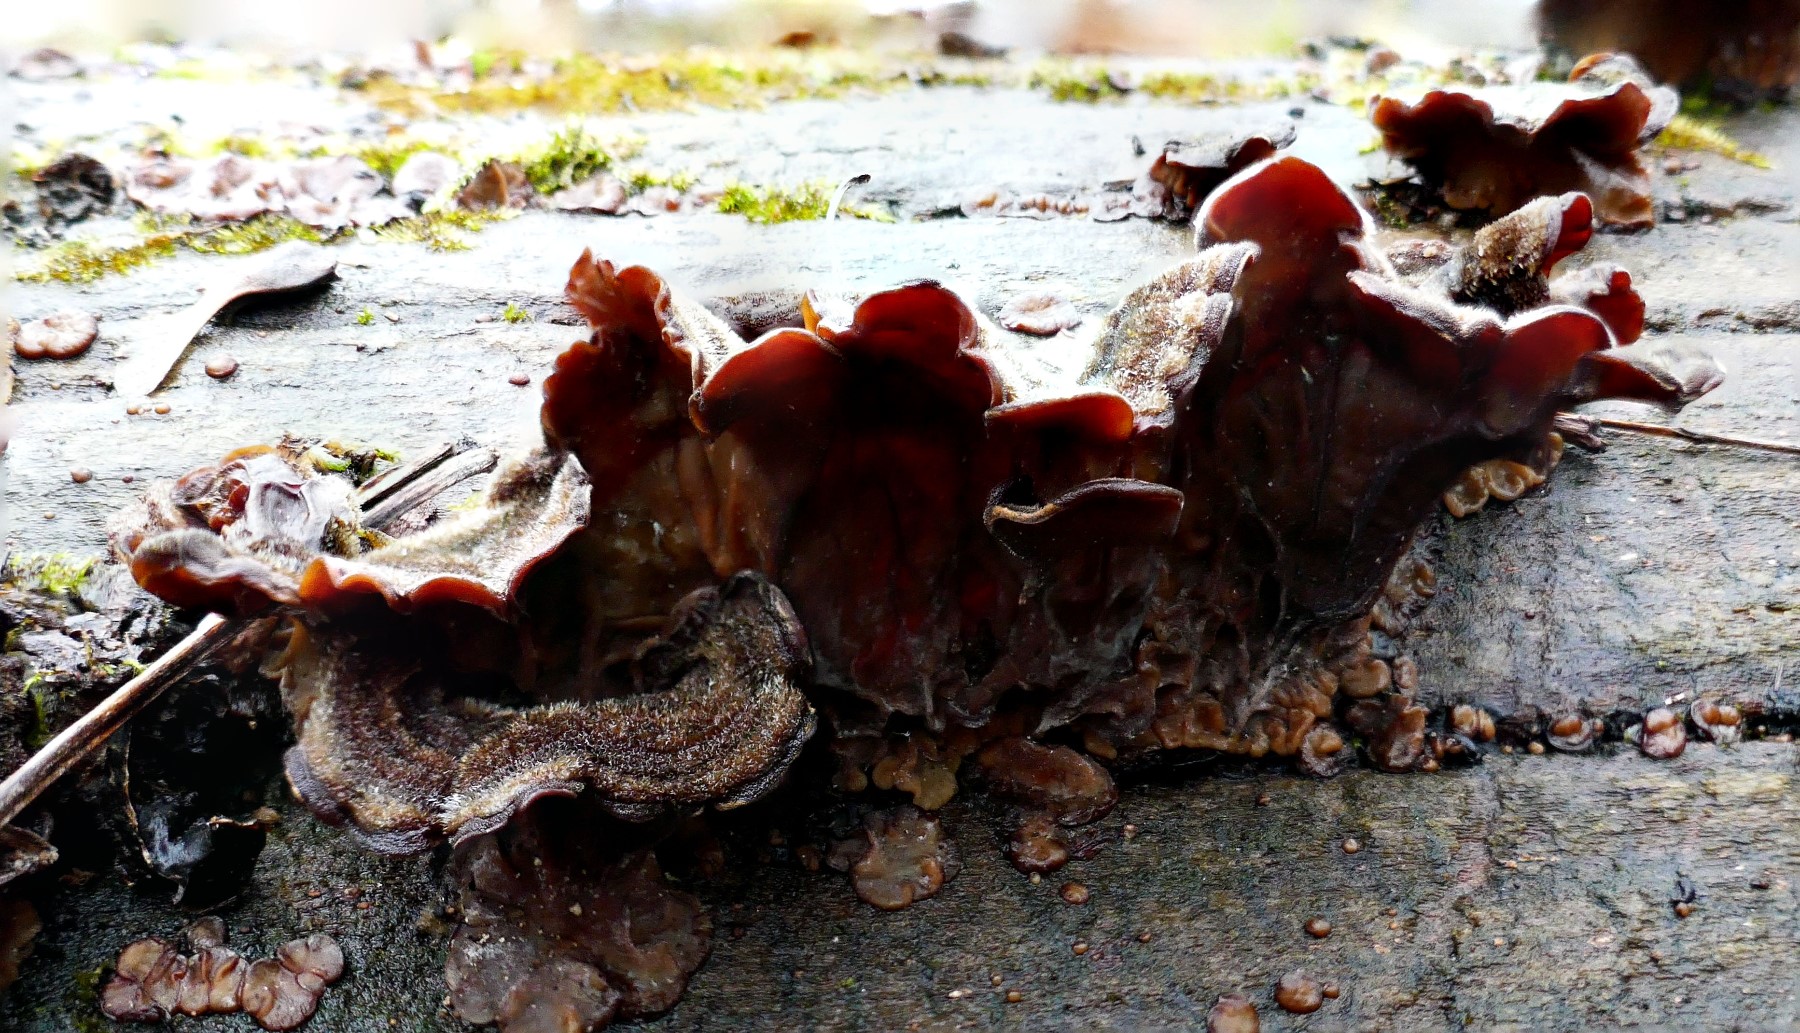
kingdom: Fungi
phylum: Basidiomycota
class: Agaricomycetes
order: Auriculariales
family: Auriculariaceae
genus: Auricularia
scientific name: Auricularia mesenterica
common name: håret judasøre
